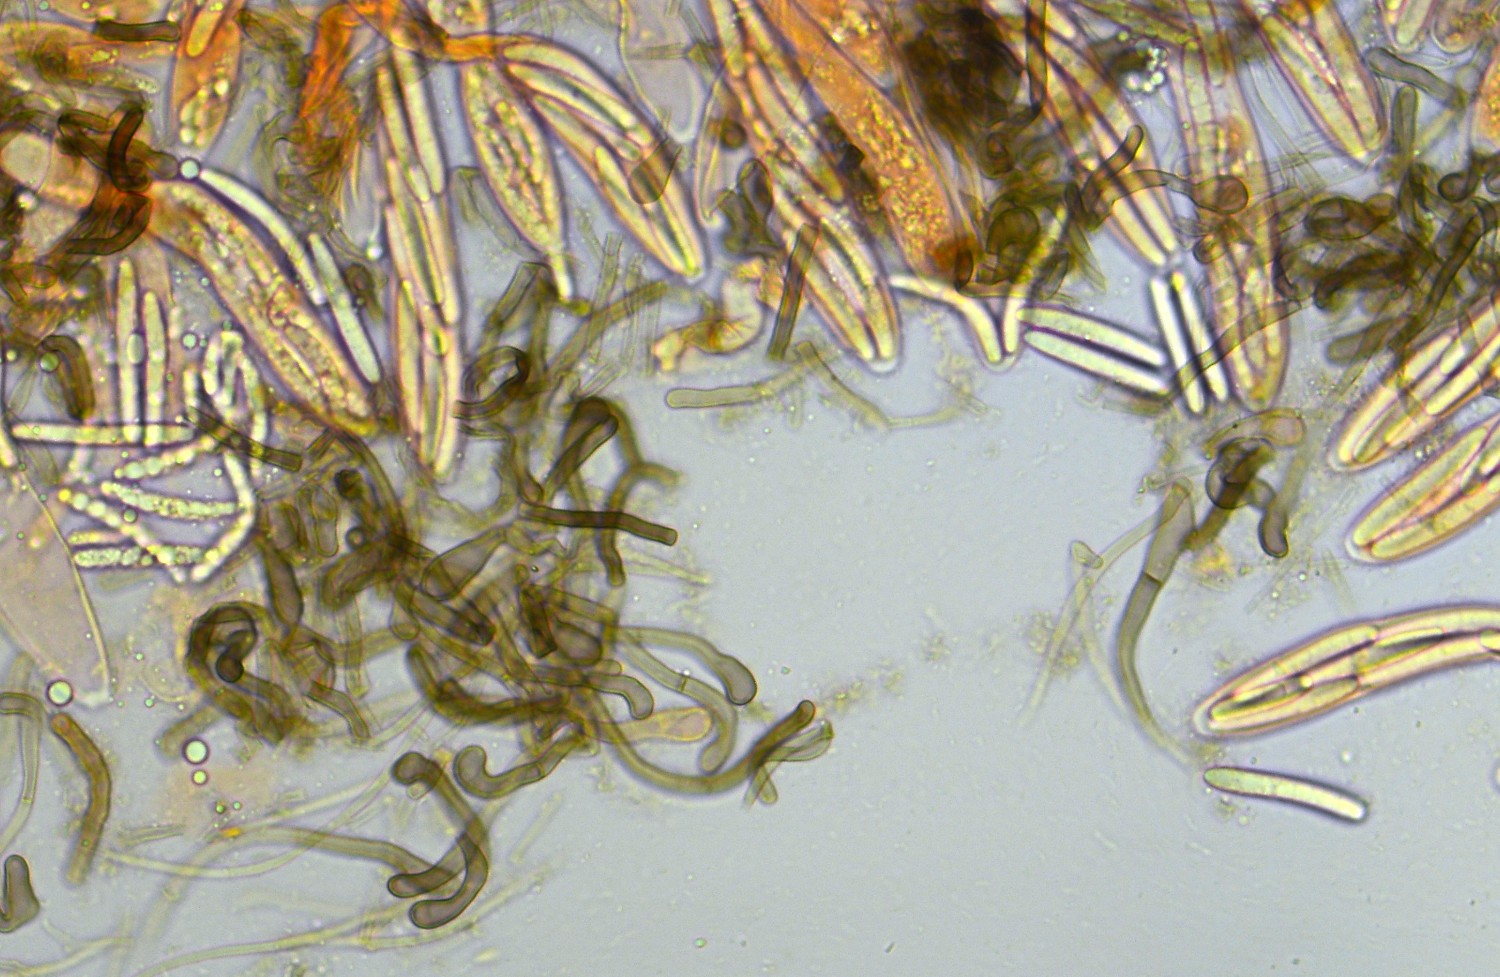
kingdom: Fungi
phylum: Ascomycota
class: Geoglossomycetes
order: Geoglossales
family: Geoglossaceae
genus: Sabuloglossum
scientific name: Sabuloglossum arenarium
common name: klit-jordtunge
